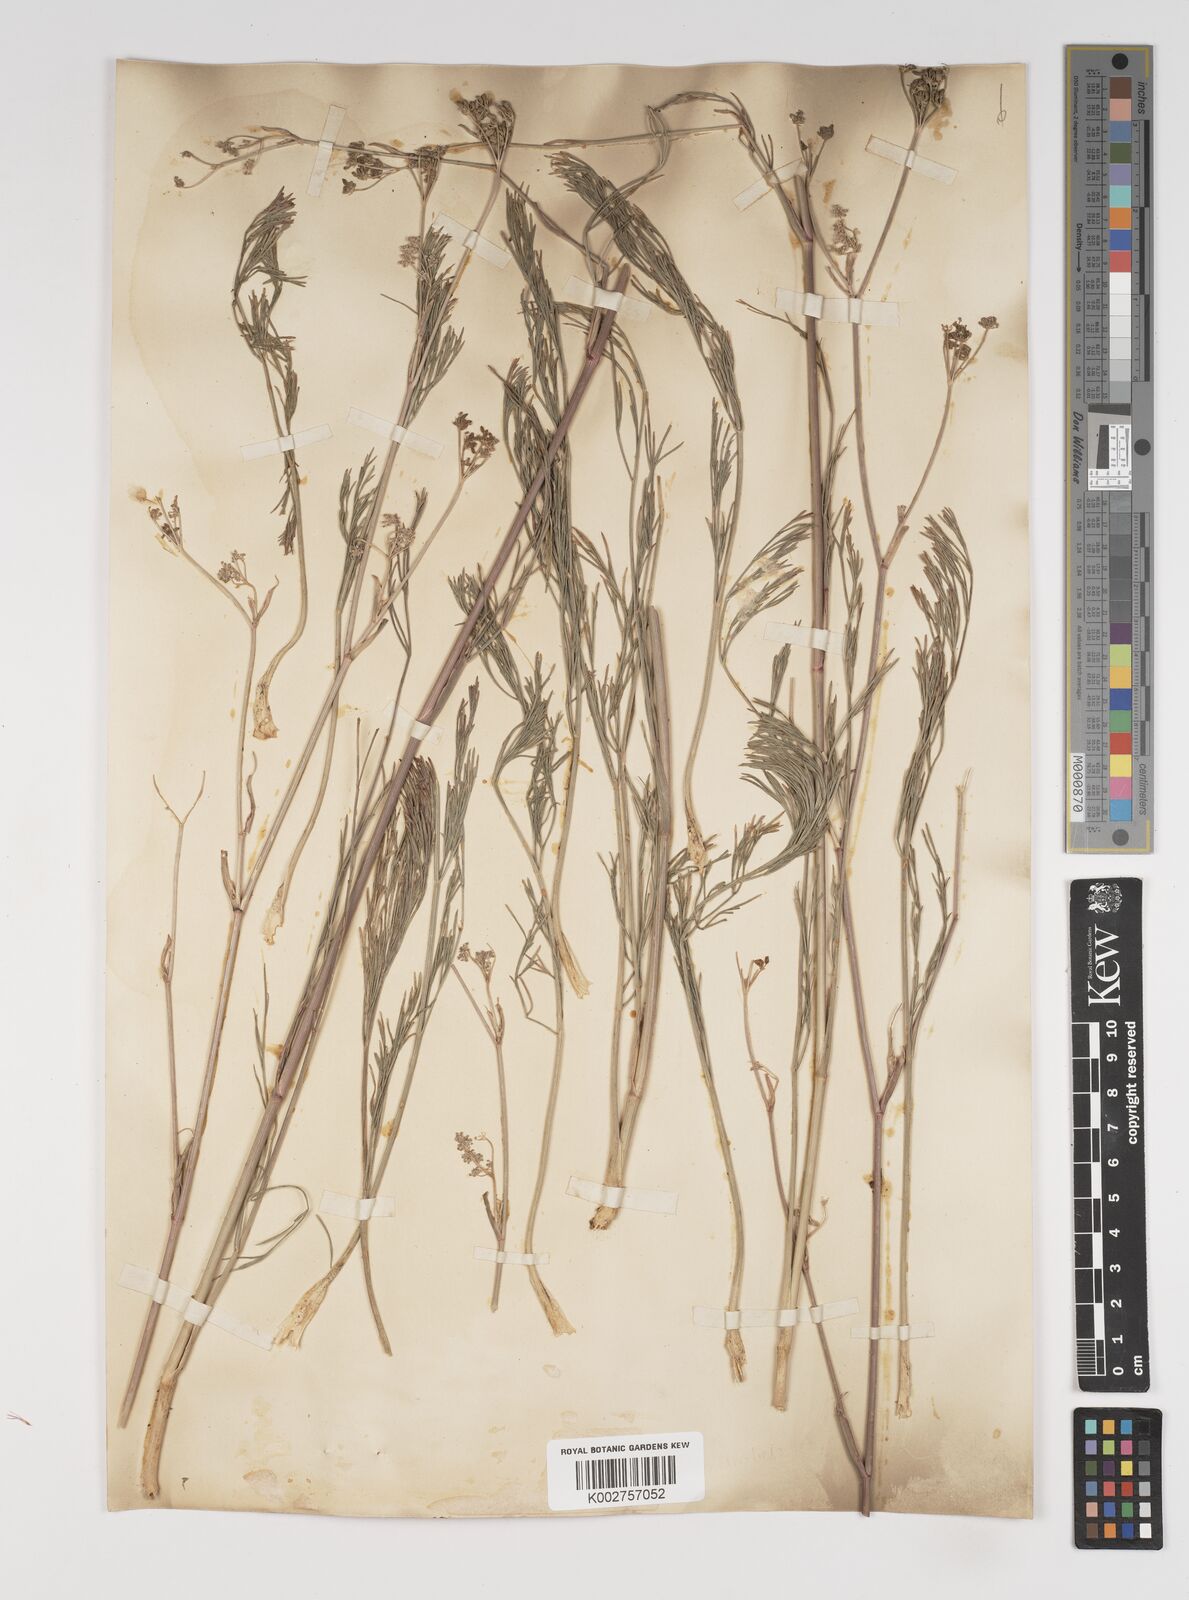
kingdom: Plantae
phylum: Tracheophyta
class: Magnoliopsida
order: Apiales
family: Apiaceae
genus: Seseli
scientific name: Seseli montanum
